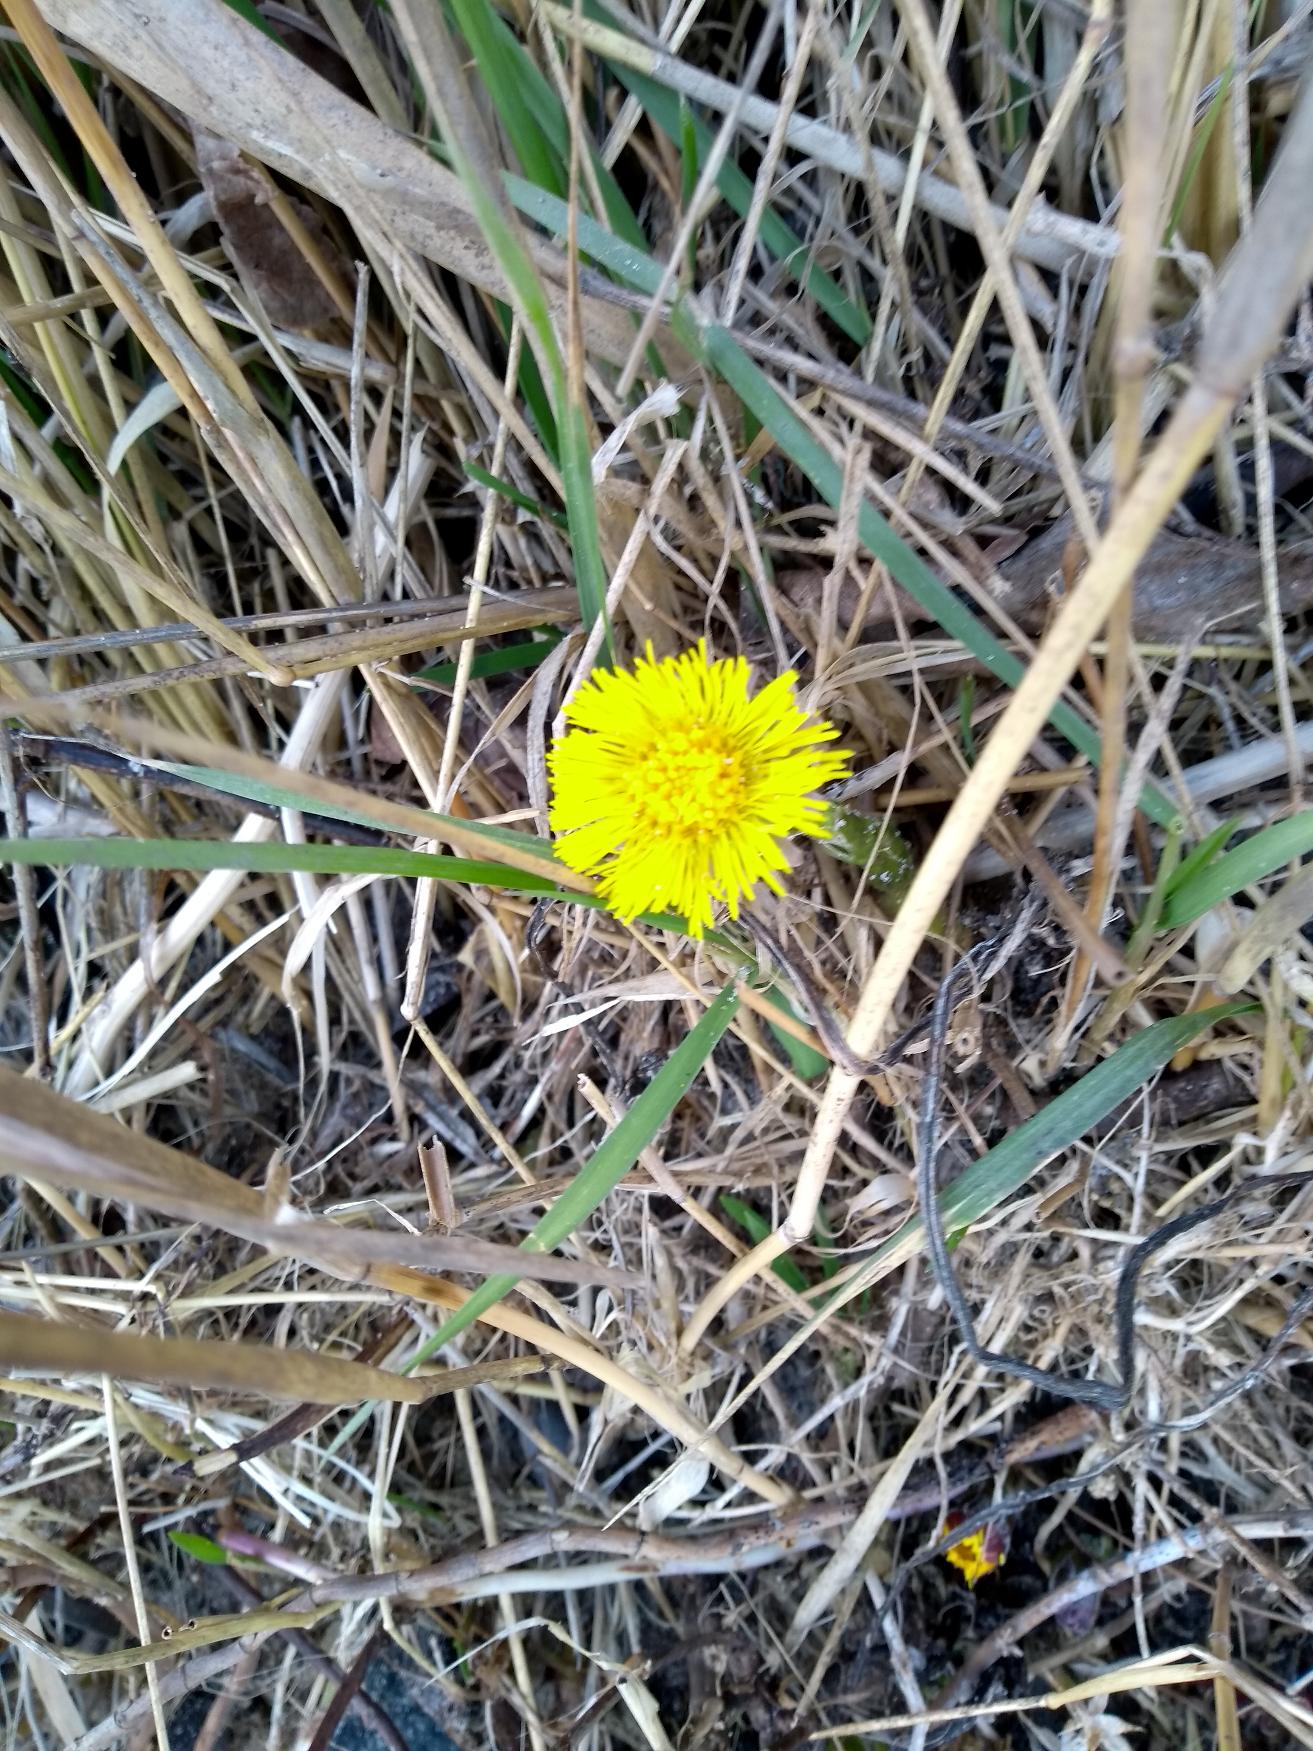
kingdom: Plantae
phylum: Tracheophyta
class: Magnoliopsida
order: Asterales
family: Asteraceae
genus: Tussilago
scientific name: Tussilago farfara
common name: Følfod
